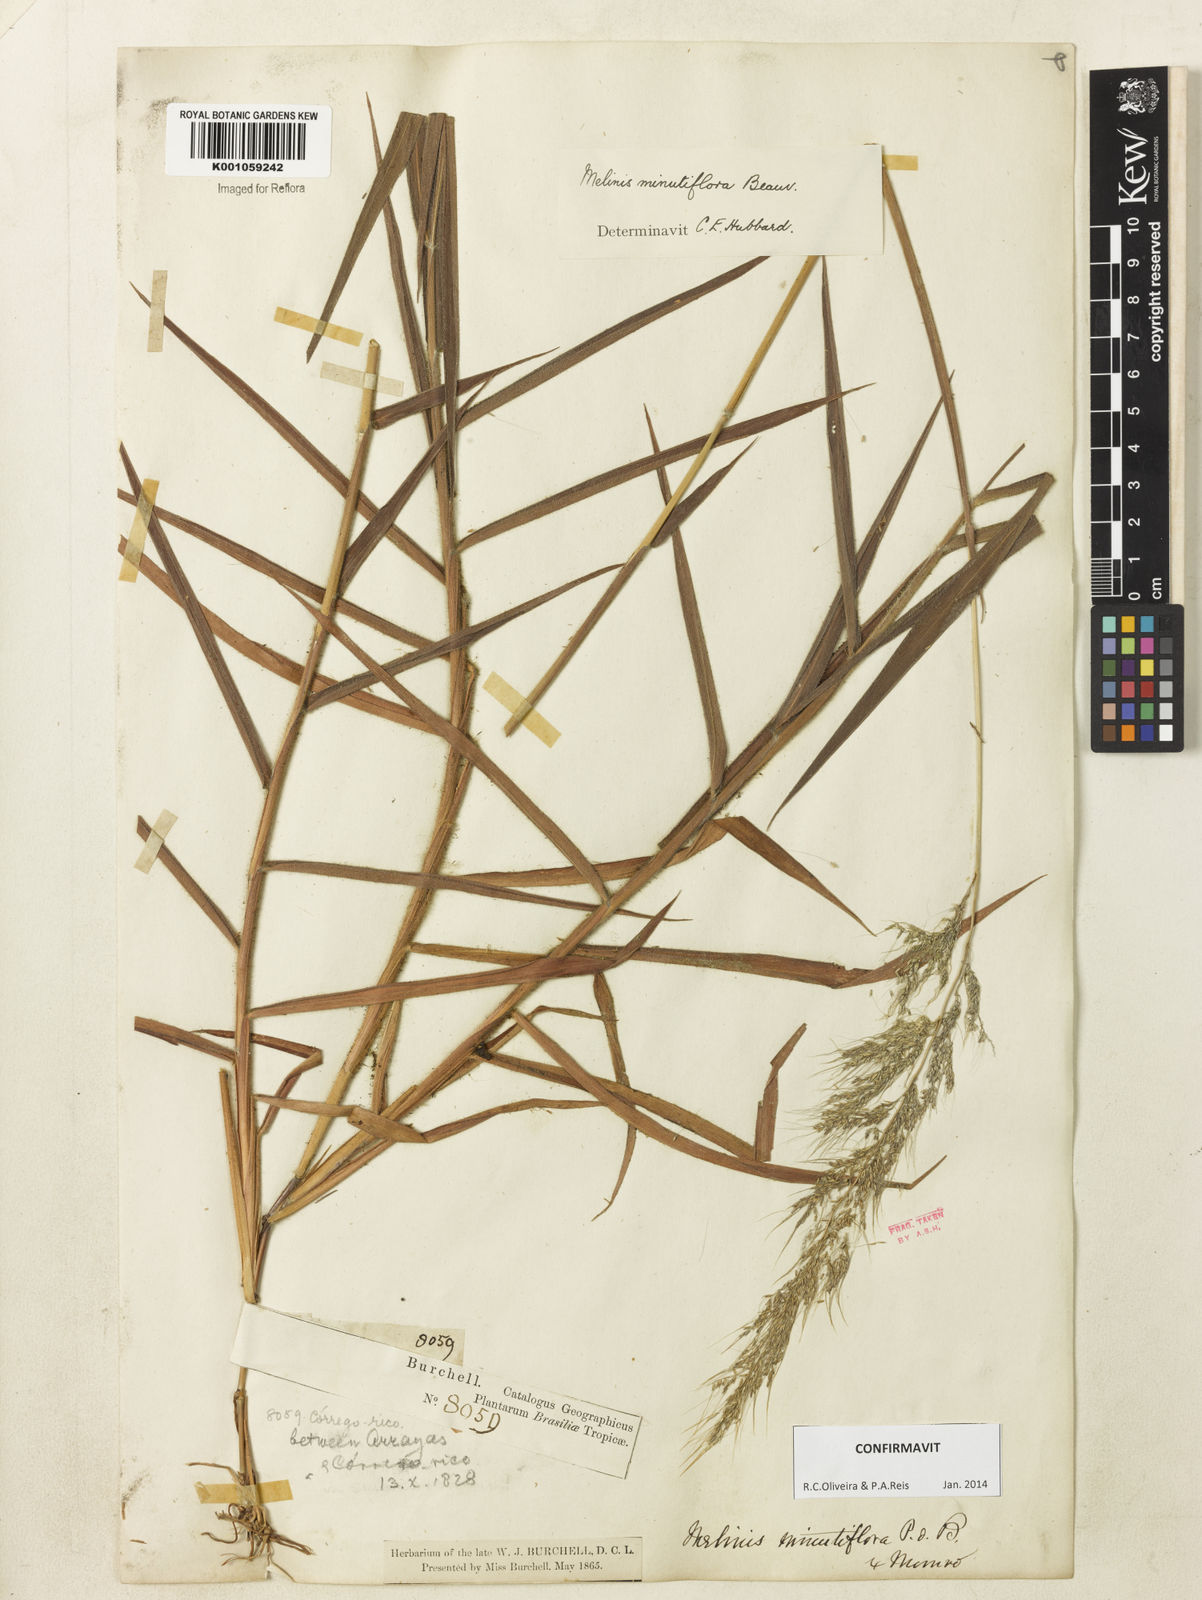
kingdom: Plantae
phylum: Tracheophyta
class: Liliopsida
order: Poales
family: Poaceae
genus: Melinis
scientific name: Melinis minutiflora
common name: Molassesgrass
